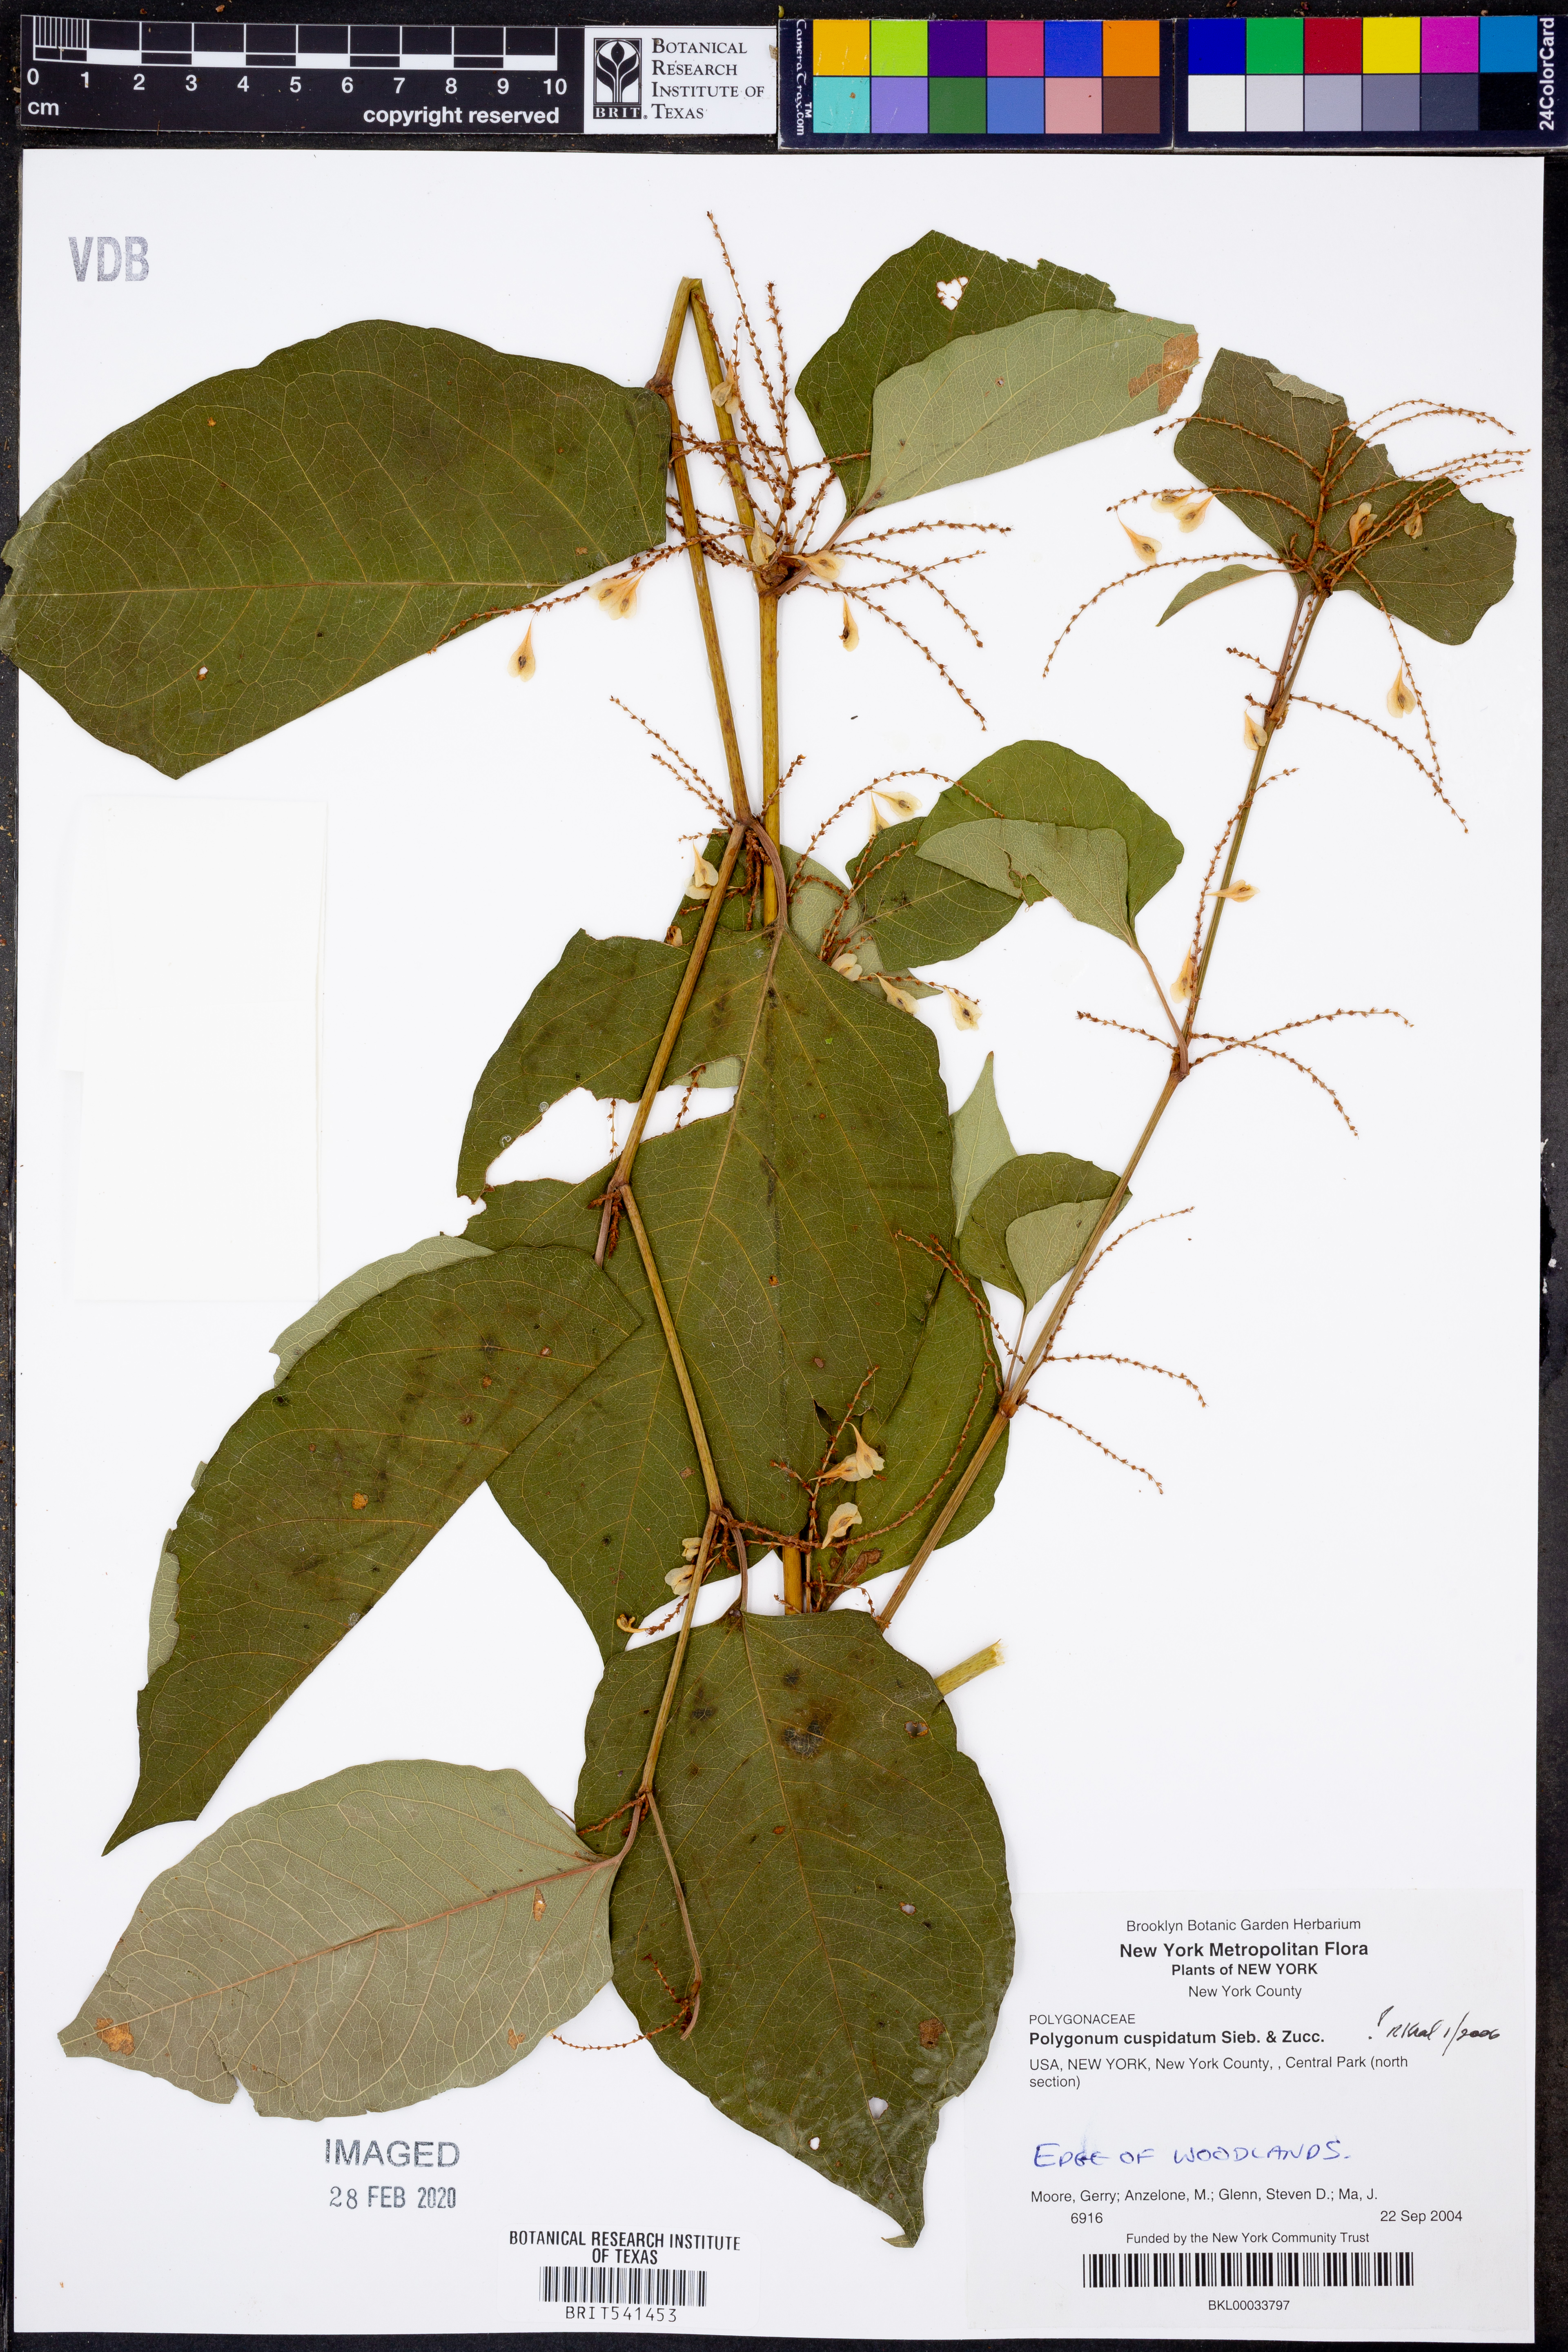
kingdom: Plantae
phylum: Tracheophyta
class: Magnoliopsida
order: Caryophyllales
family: Polygonaceae
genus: Reynoutria
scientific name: Reynoutria japonica
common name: Japanese knotweed
